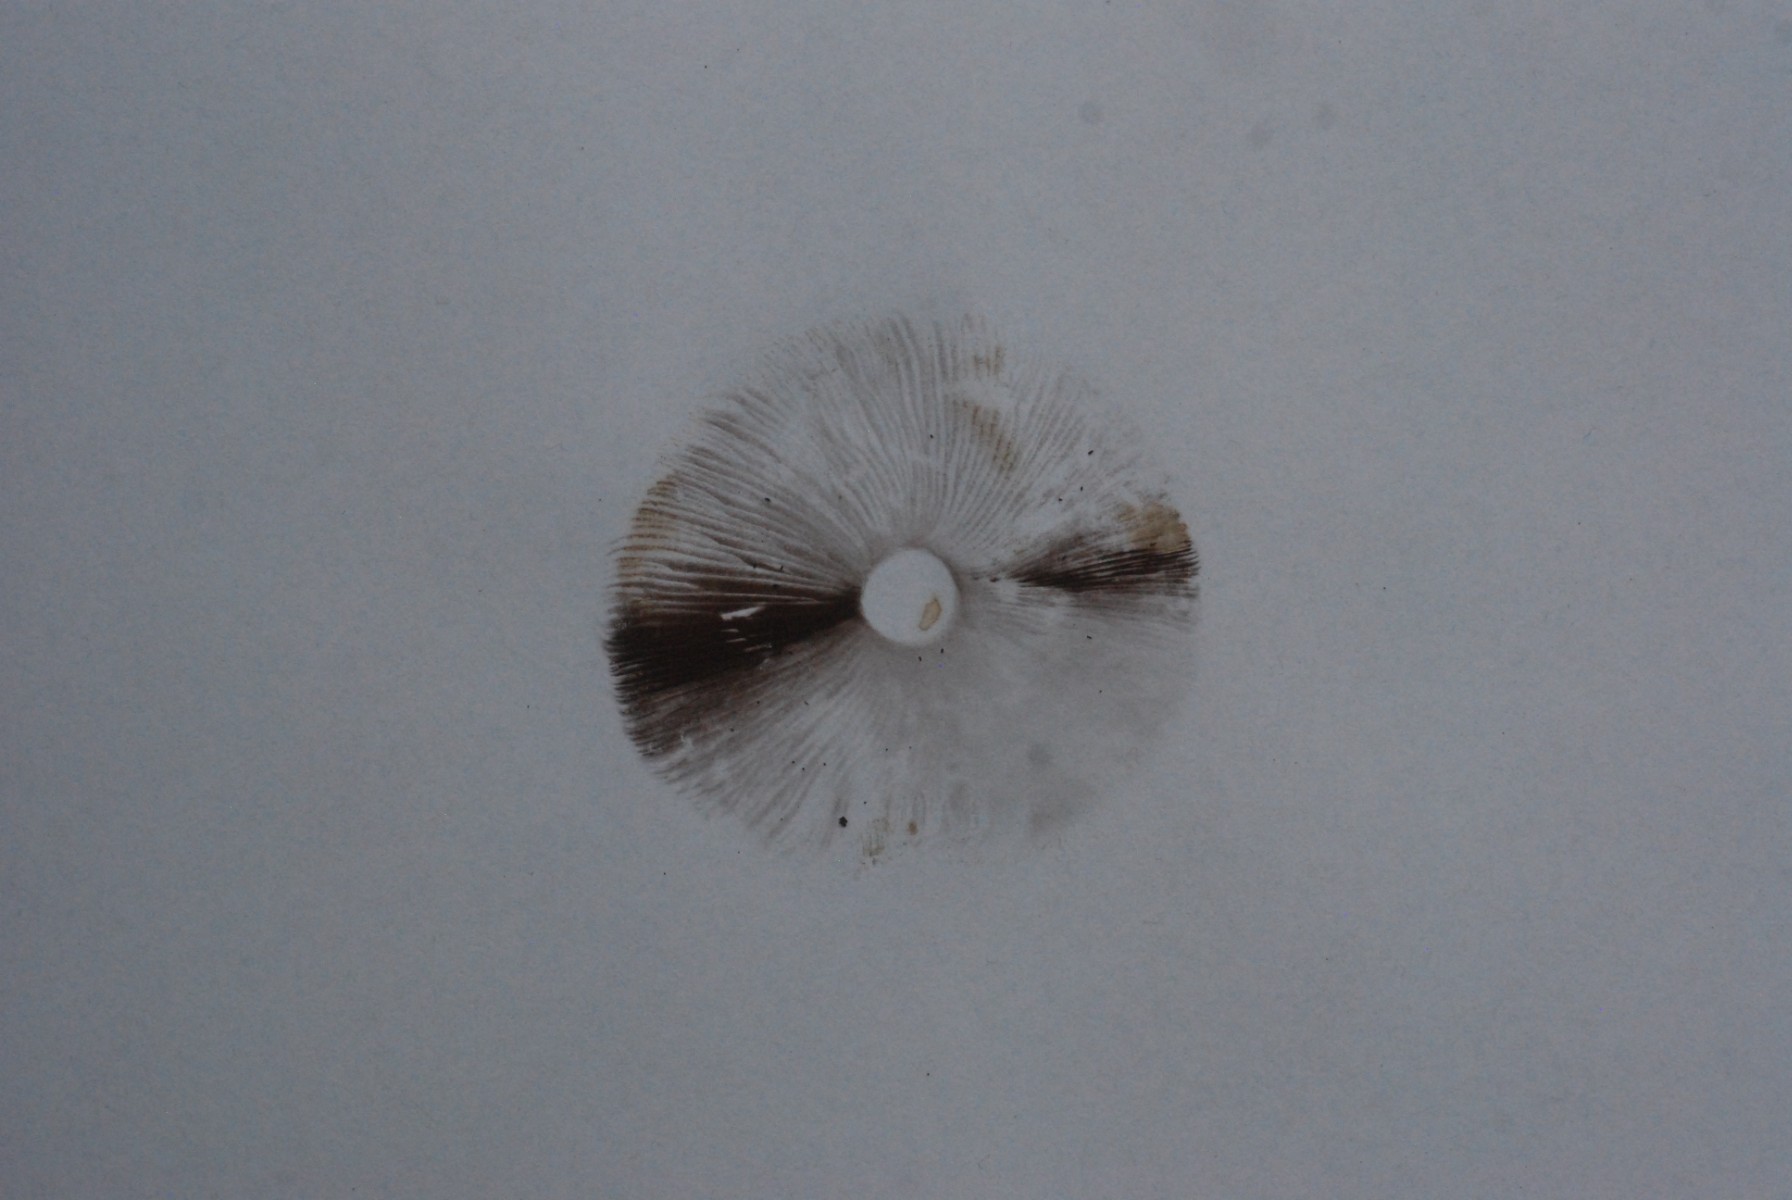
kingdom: Fungi
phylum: Basidiomycota
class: Agaricomycetes
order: Agaricales
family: Agaricaceae
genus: Agaricus
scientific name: Agaricus
